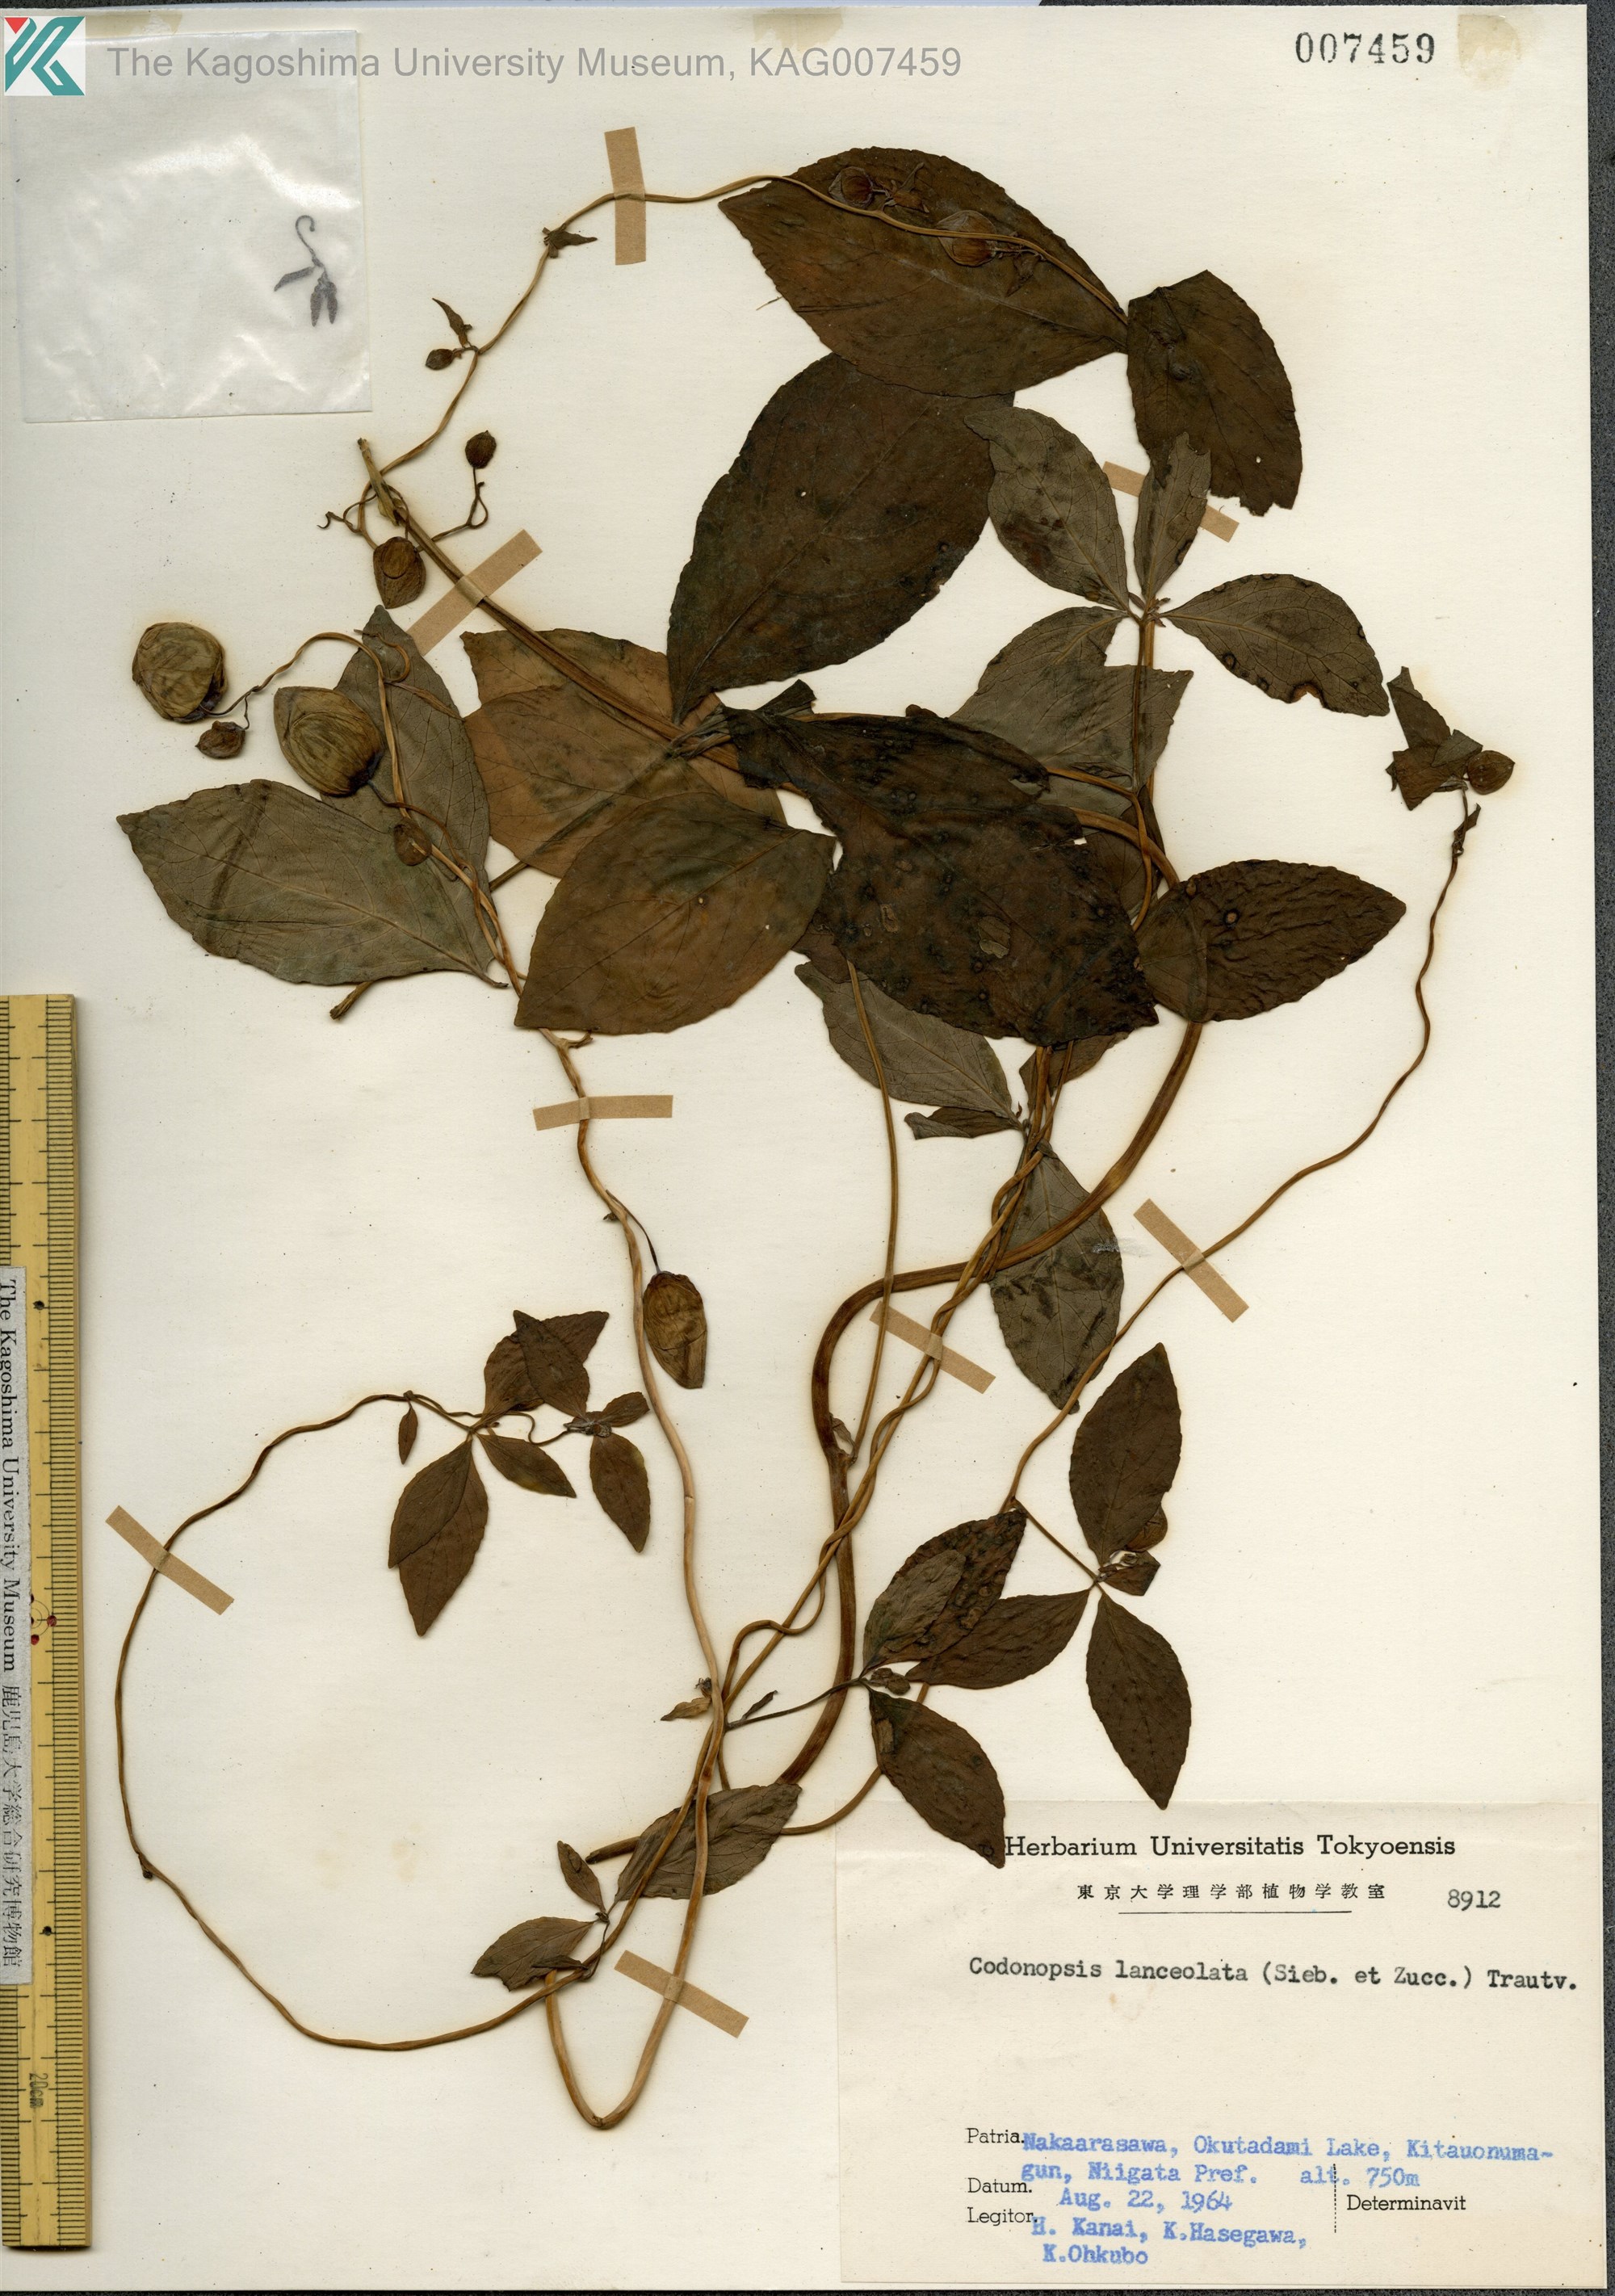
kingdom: Plantae
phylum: Tracheophyta
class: Magnoliopsida
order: Asterales
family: Campanulaceae
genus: Codonopsis
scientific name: Codonopsis lanceolata
